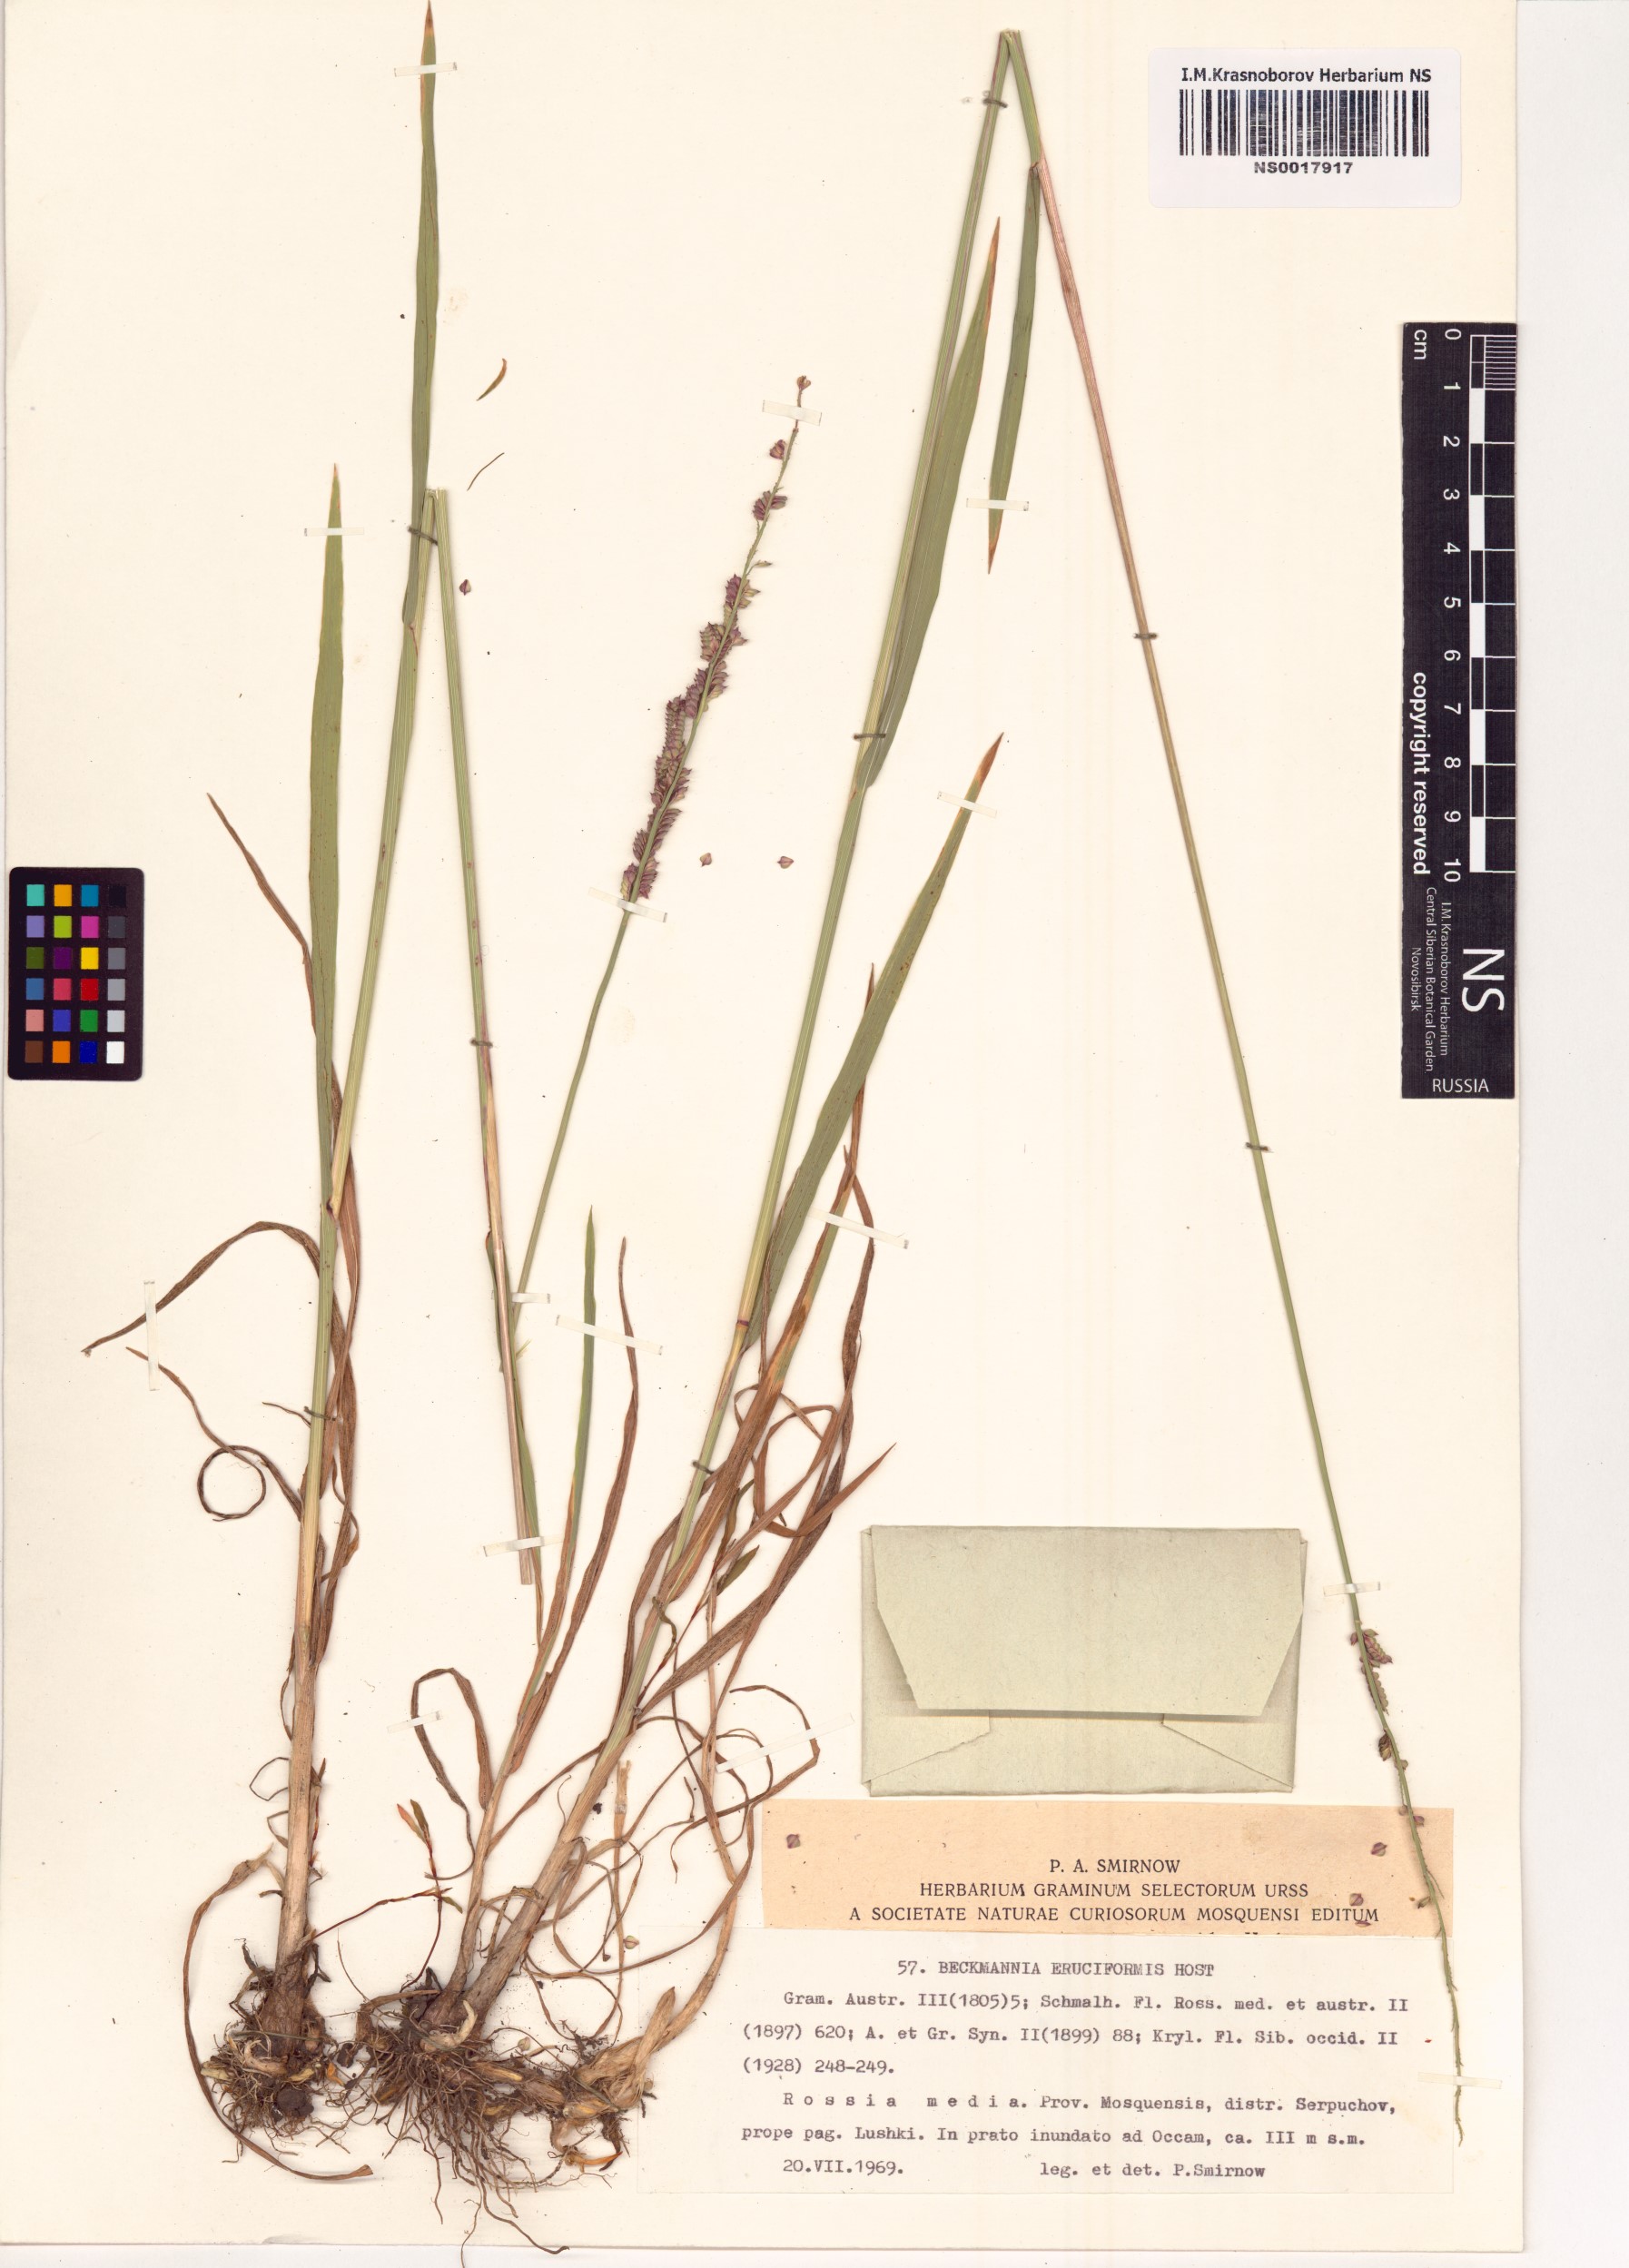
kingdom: Plantae
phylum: Tracheophyta
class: Liliopsida
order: Poales
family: Poaceae
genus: Beckmannia
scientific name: Beckmannia eruciformis
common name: European slough-grass
